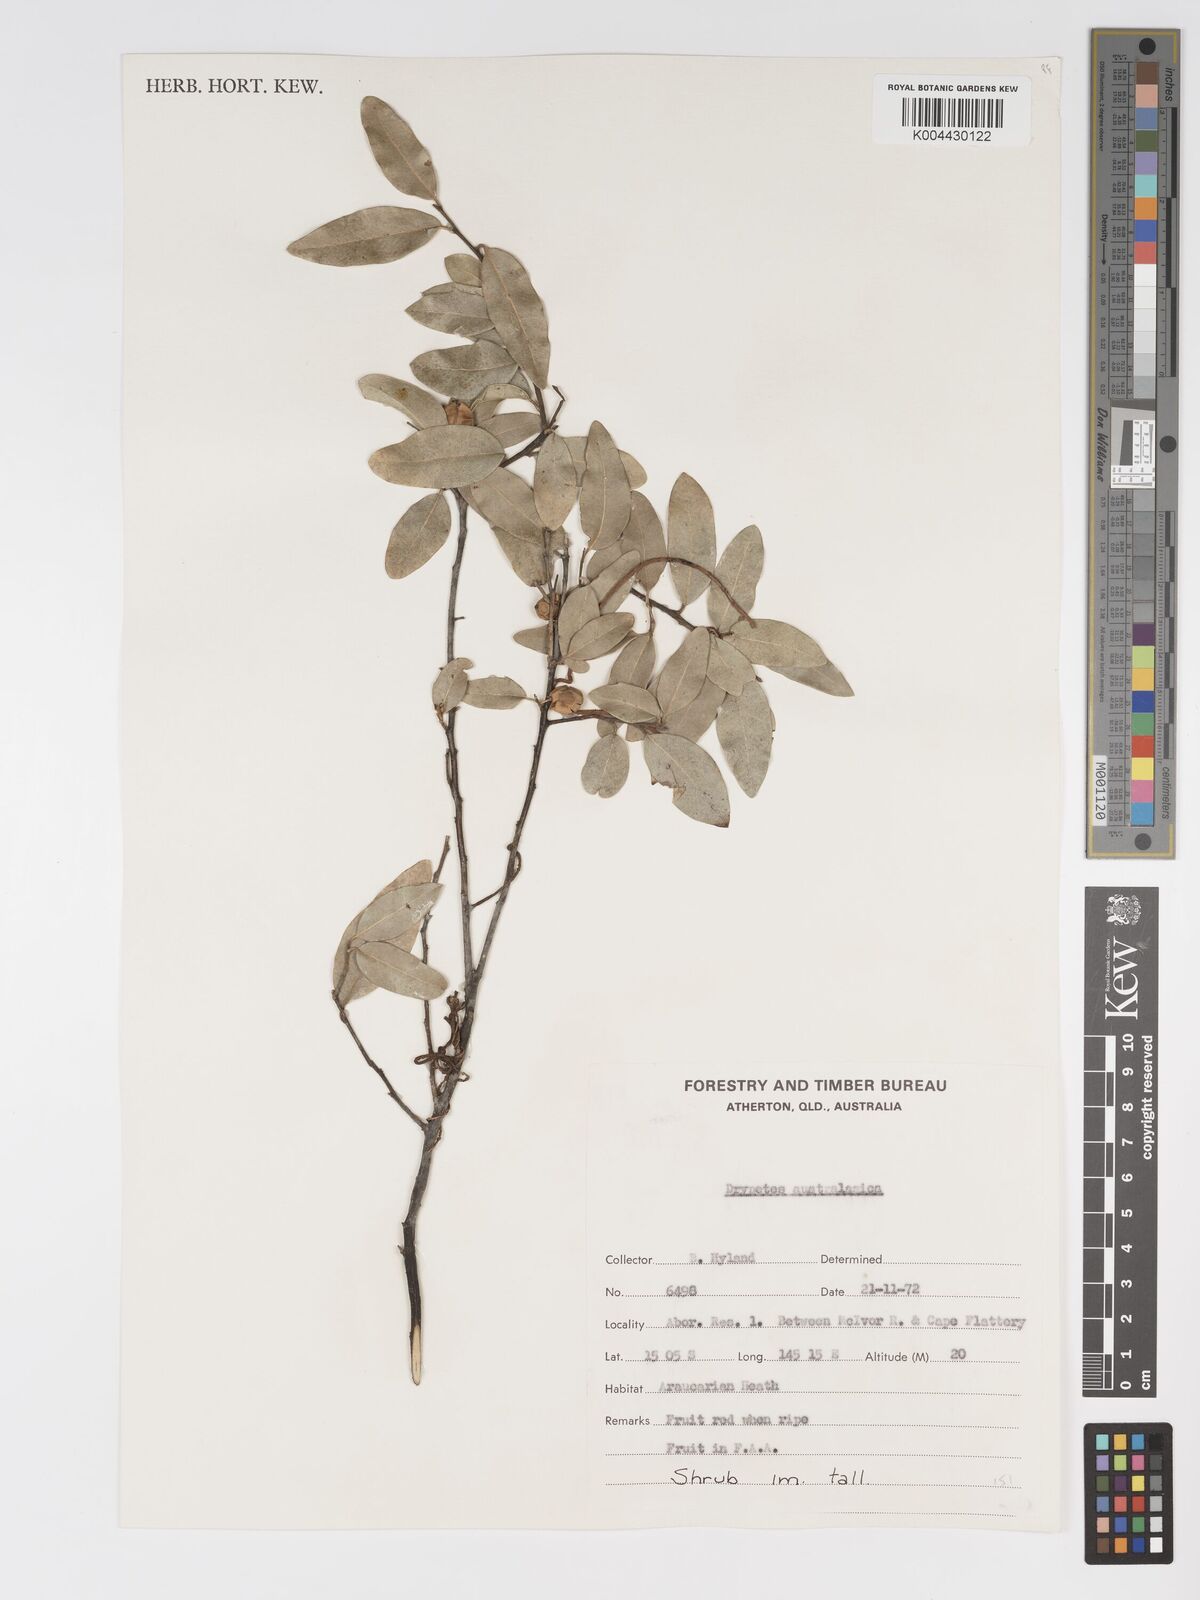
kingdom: Plantae
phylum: Tracheophyta
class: Magnoliopsida
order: Malpighiales
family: Putranjivaceae
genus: Drypetes
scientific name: Drypetes deplanchei
